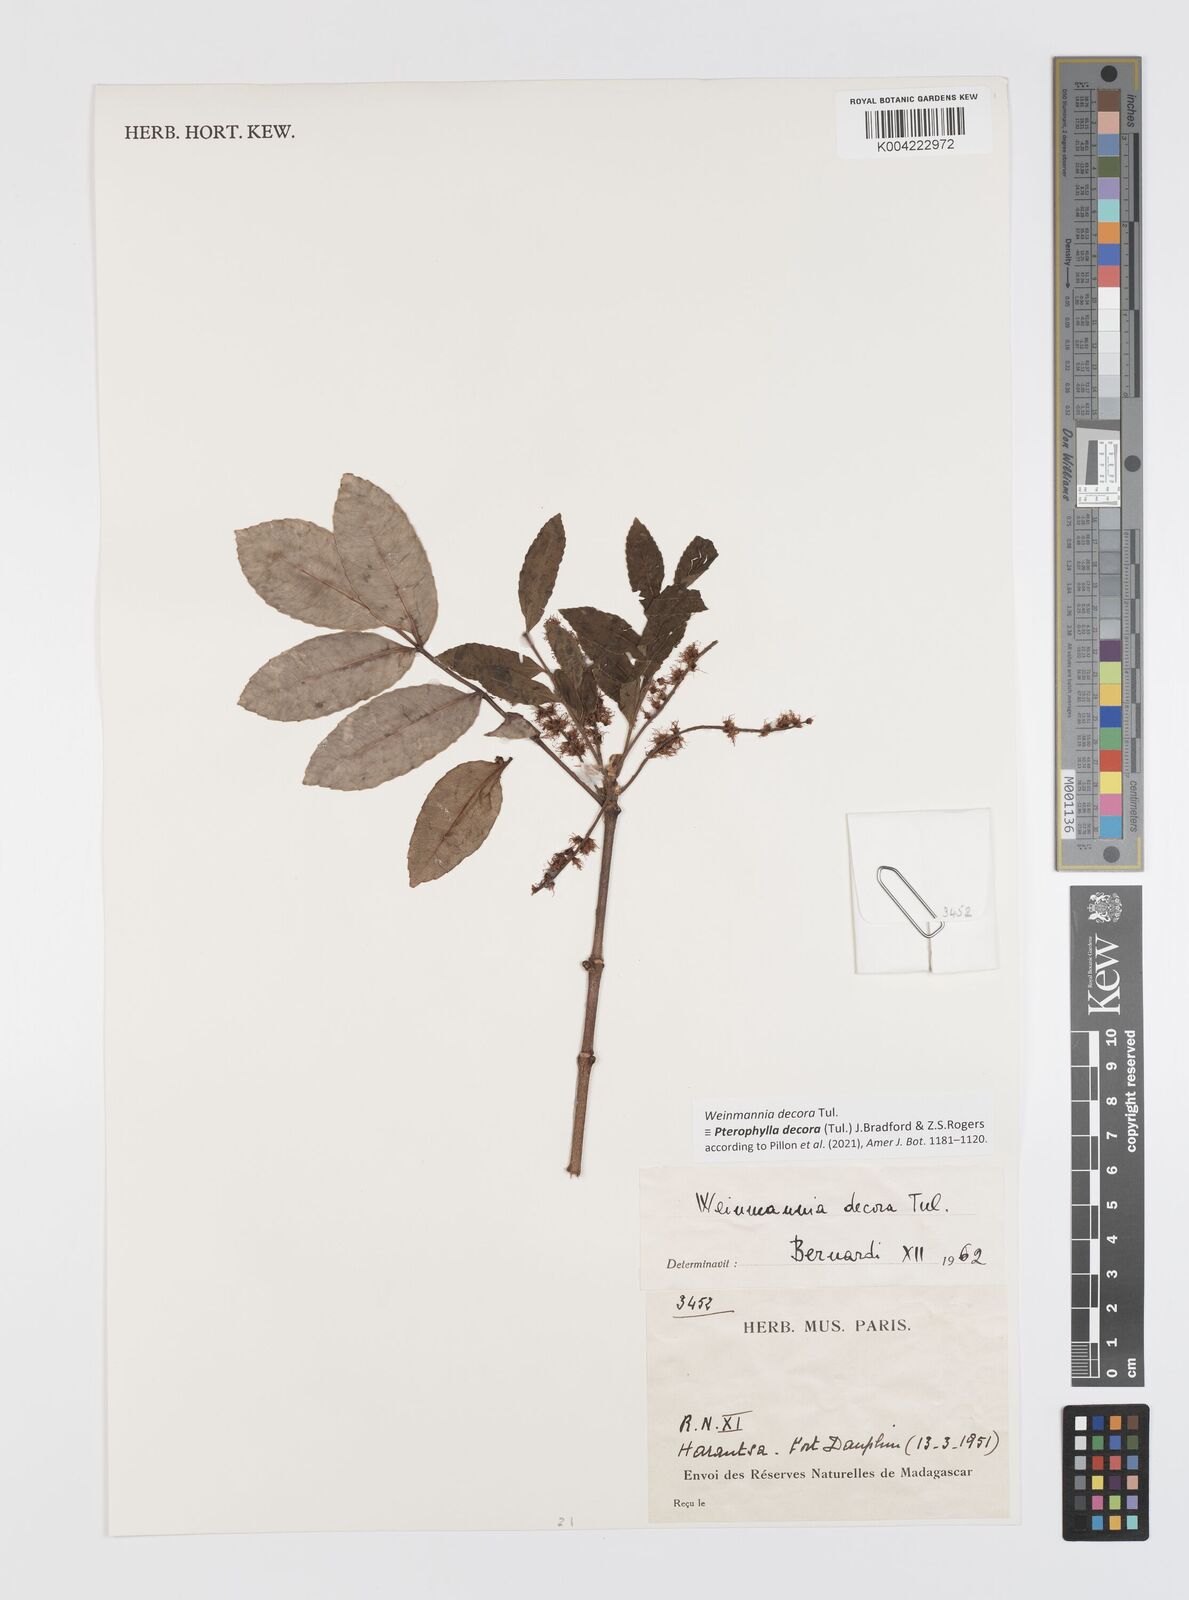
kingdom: Plantae
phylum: Tracheophyta
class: Magnoliopsida
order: Oxalidales
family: Cunoniaceae
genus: Pterophylla
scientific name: Pterophylla decora
